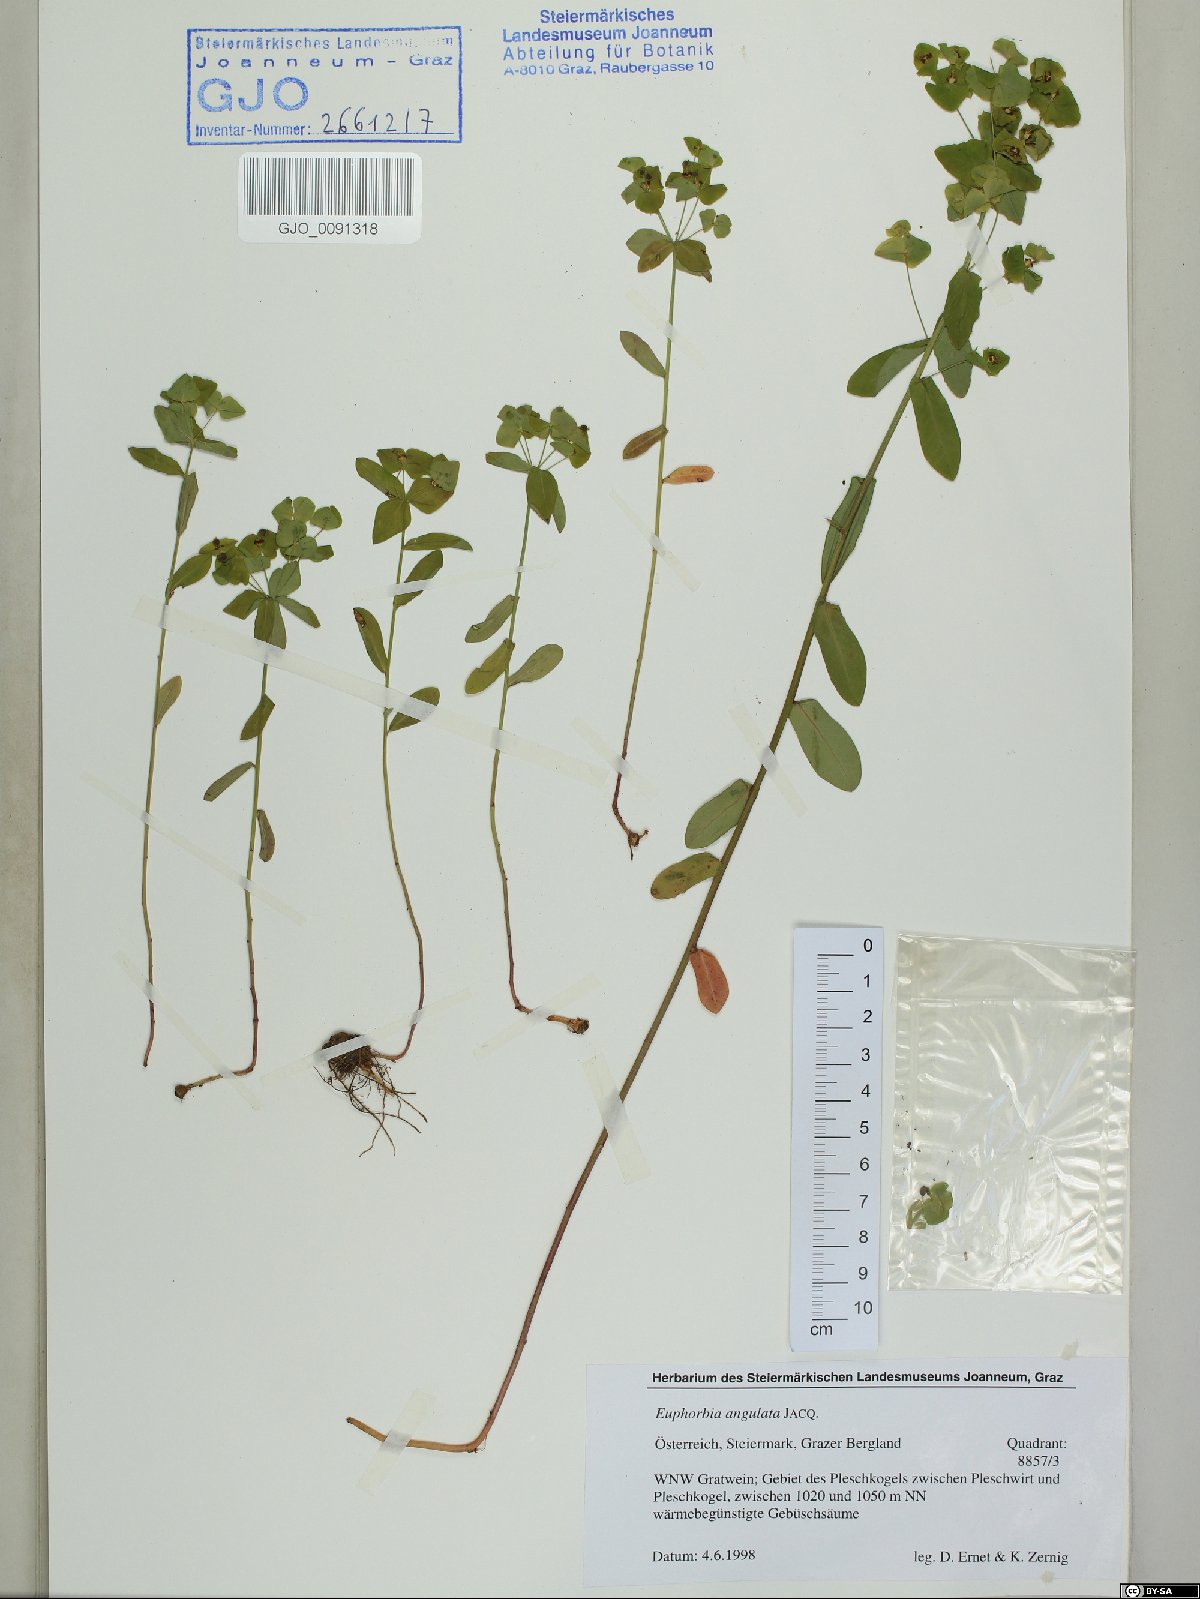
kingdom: Plantae
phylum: Tracheophyta
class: Magnoliopsida
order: Malpighiales
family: Euphorbiaceae
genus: Euphorbia
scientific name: Euphorbia angulata
